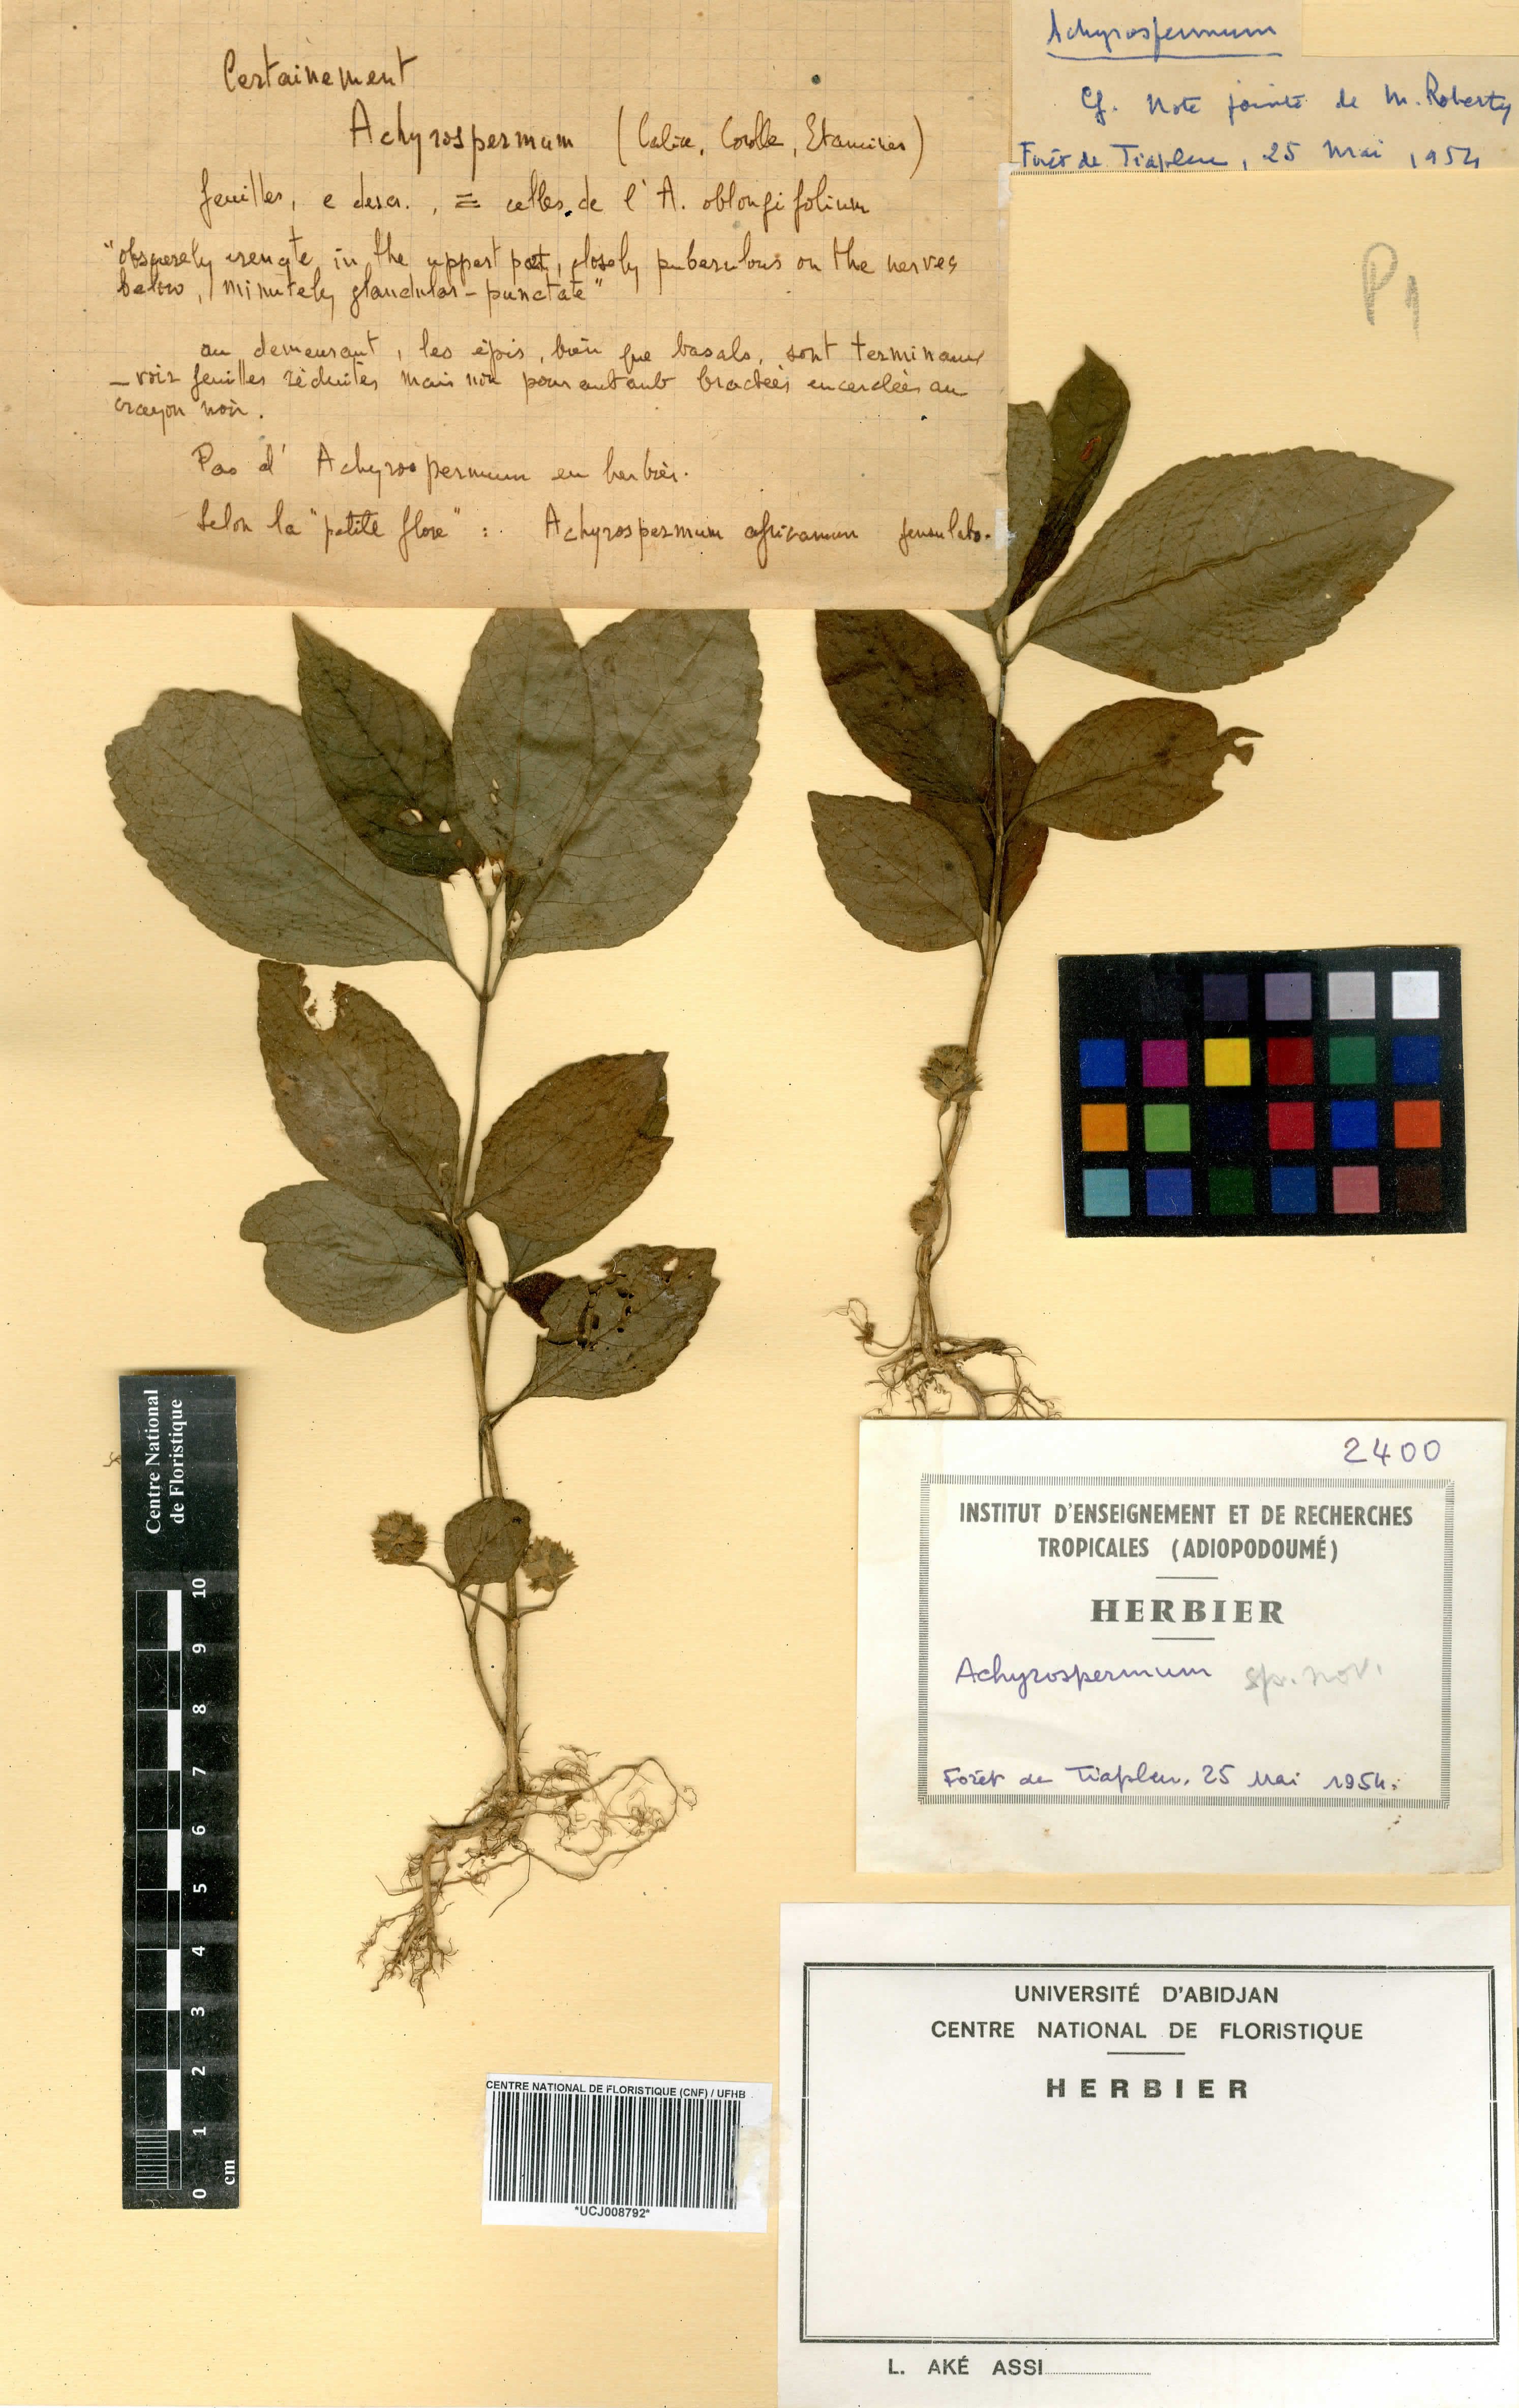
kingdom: Plantae
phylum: Tracheophyta
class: Magnoliopsida
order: Lamiales
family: Lamiaceae
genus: Achyrospermum
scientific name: Achyrospermum
